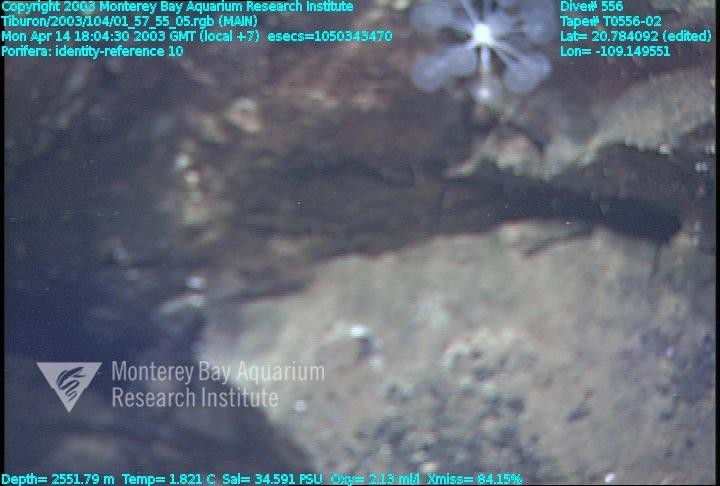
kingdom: Animalia
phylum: Porifera
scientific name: Porifera
